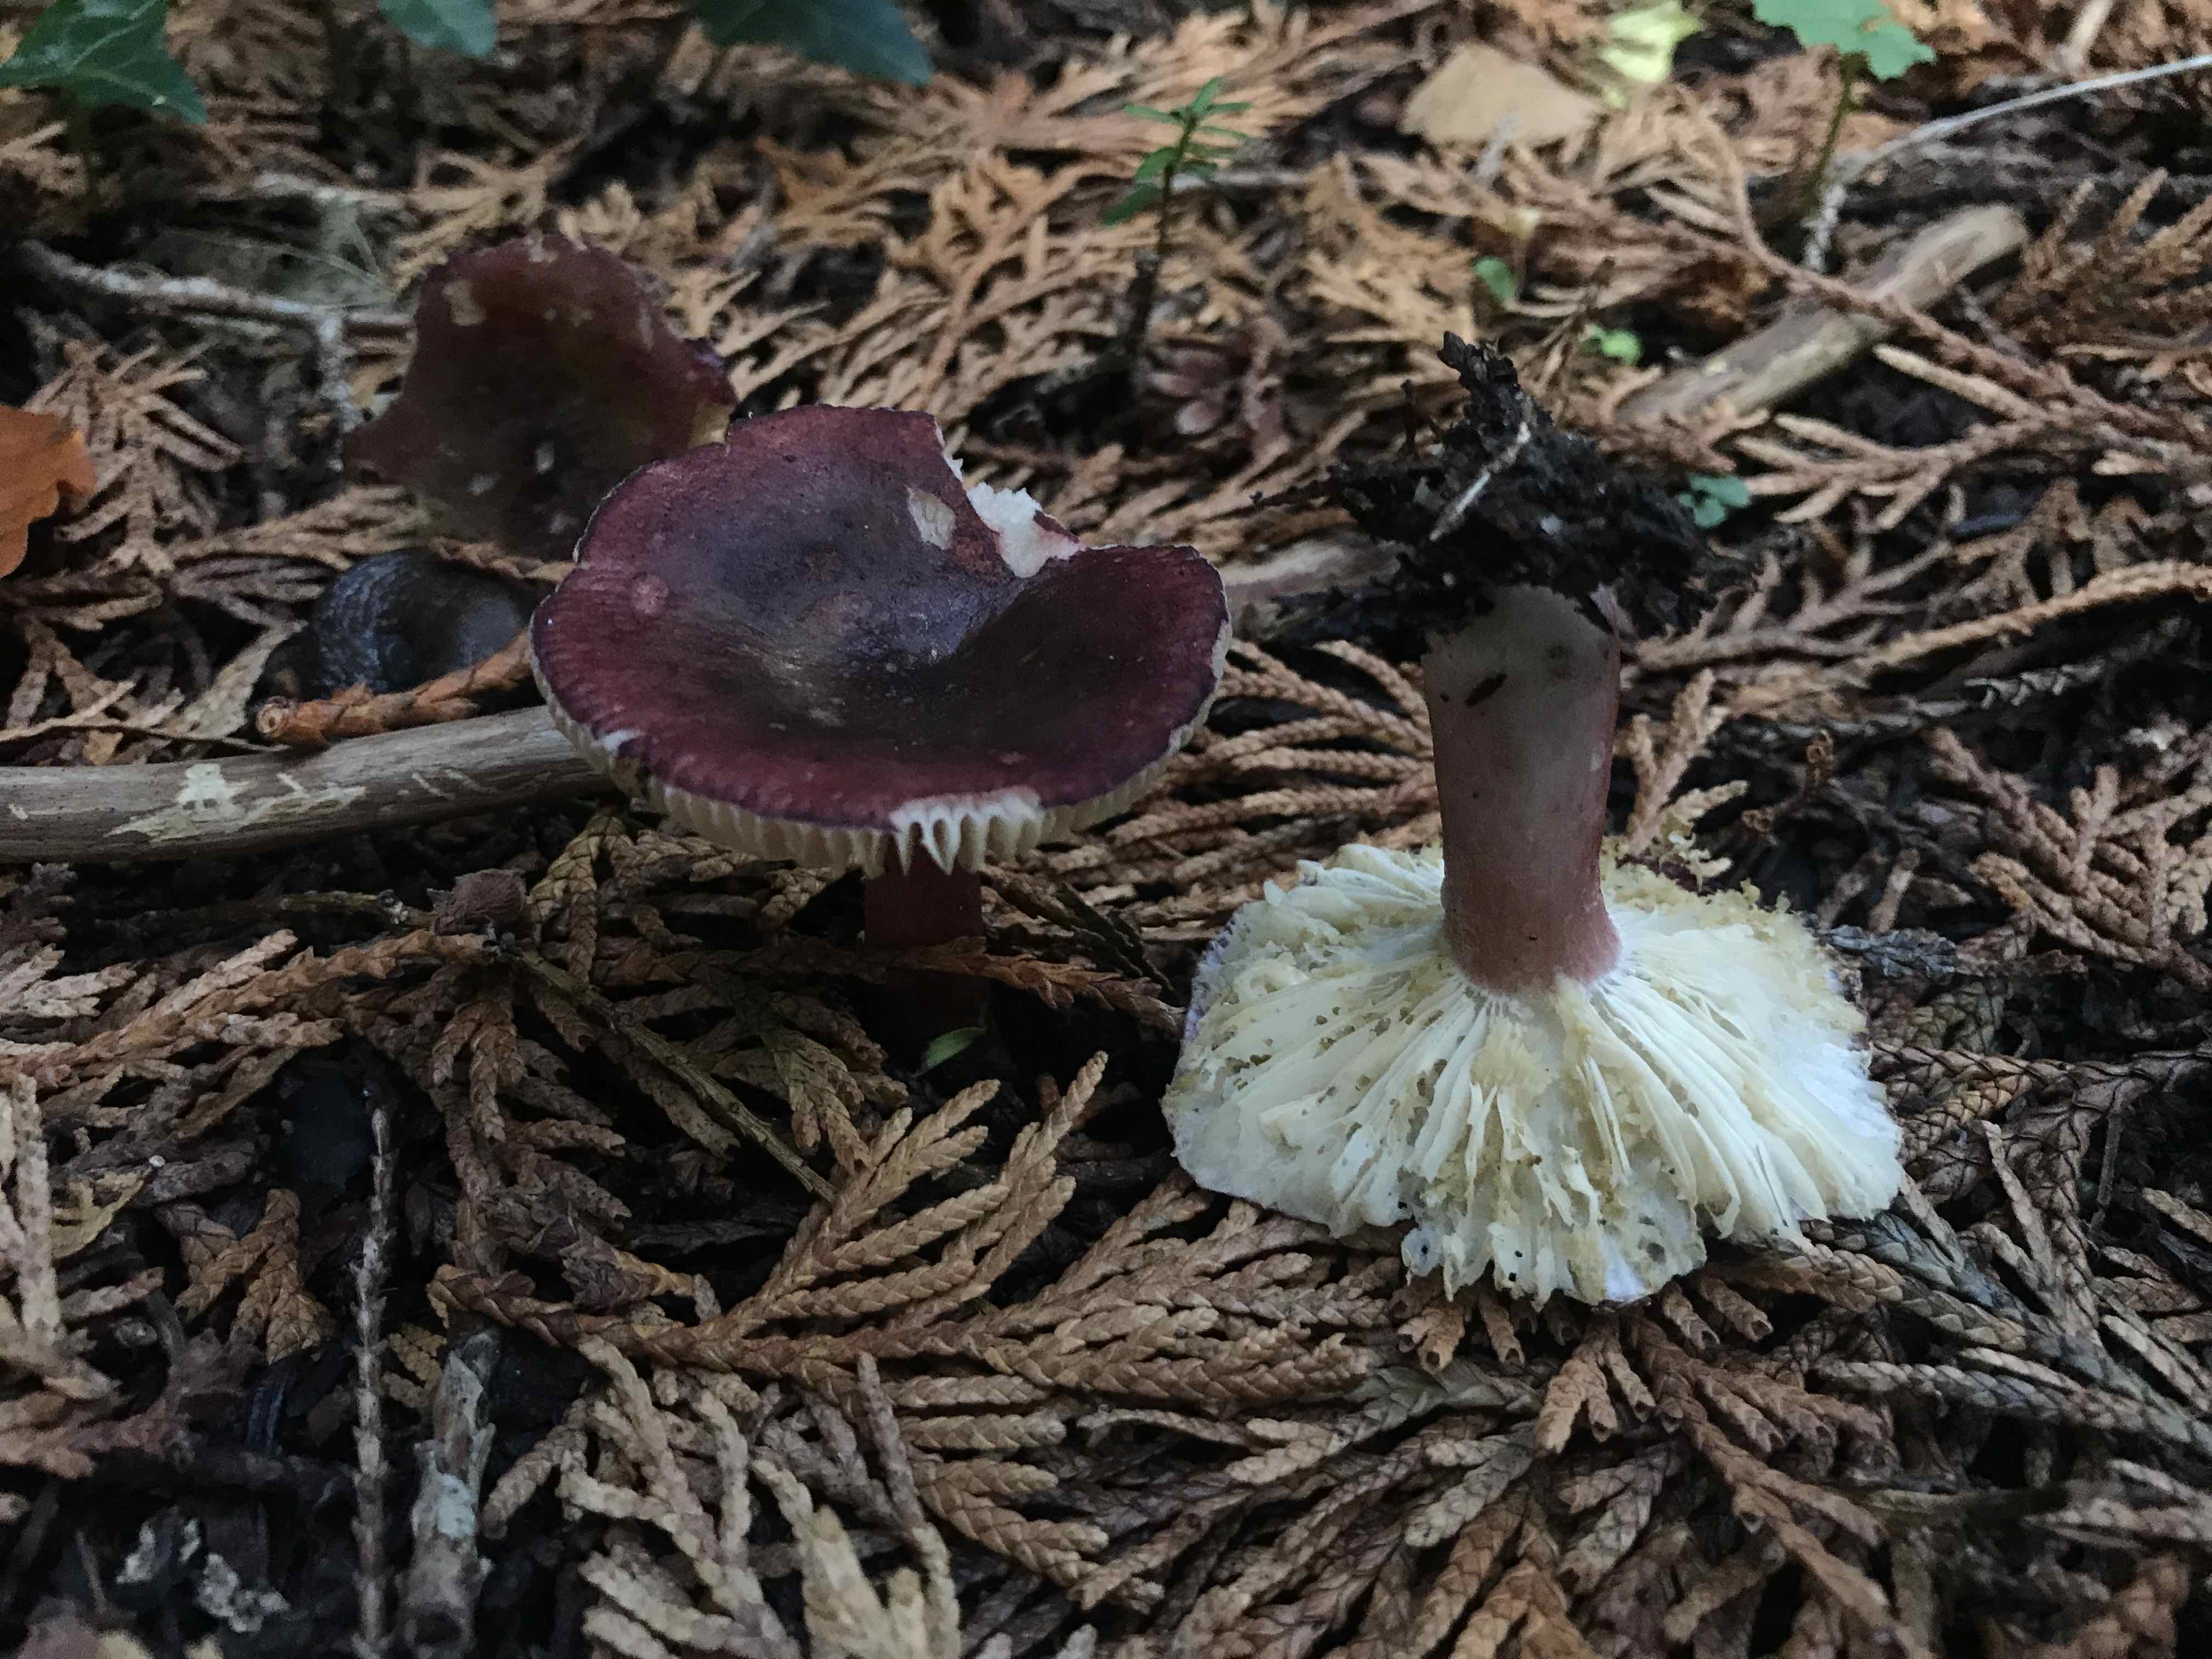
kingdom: Fungi
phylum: Basidiomycota
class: Agaricomycetes
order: Russulales
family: Russulaceae
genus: Russula
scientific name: Russula queletii
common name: Quélets skørhat
